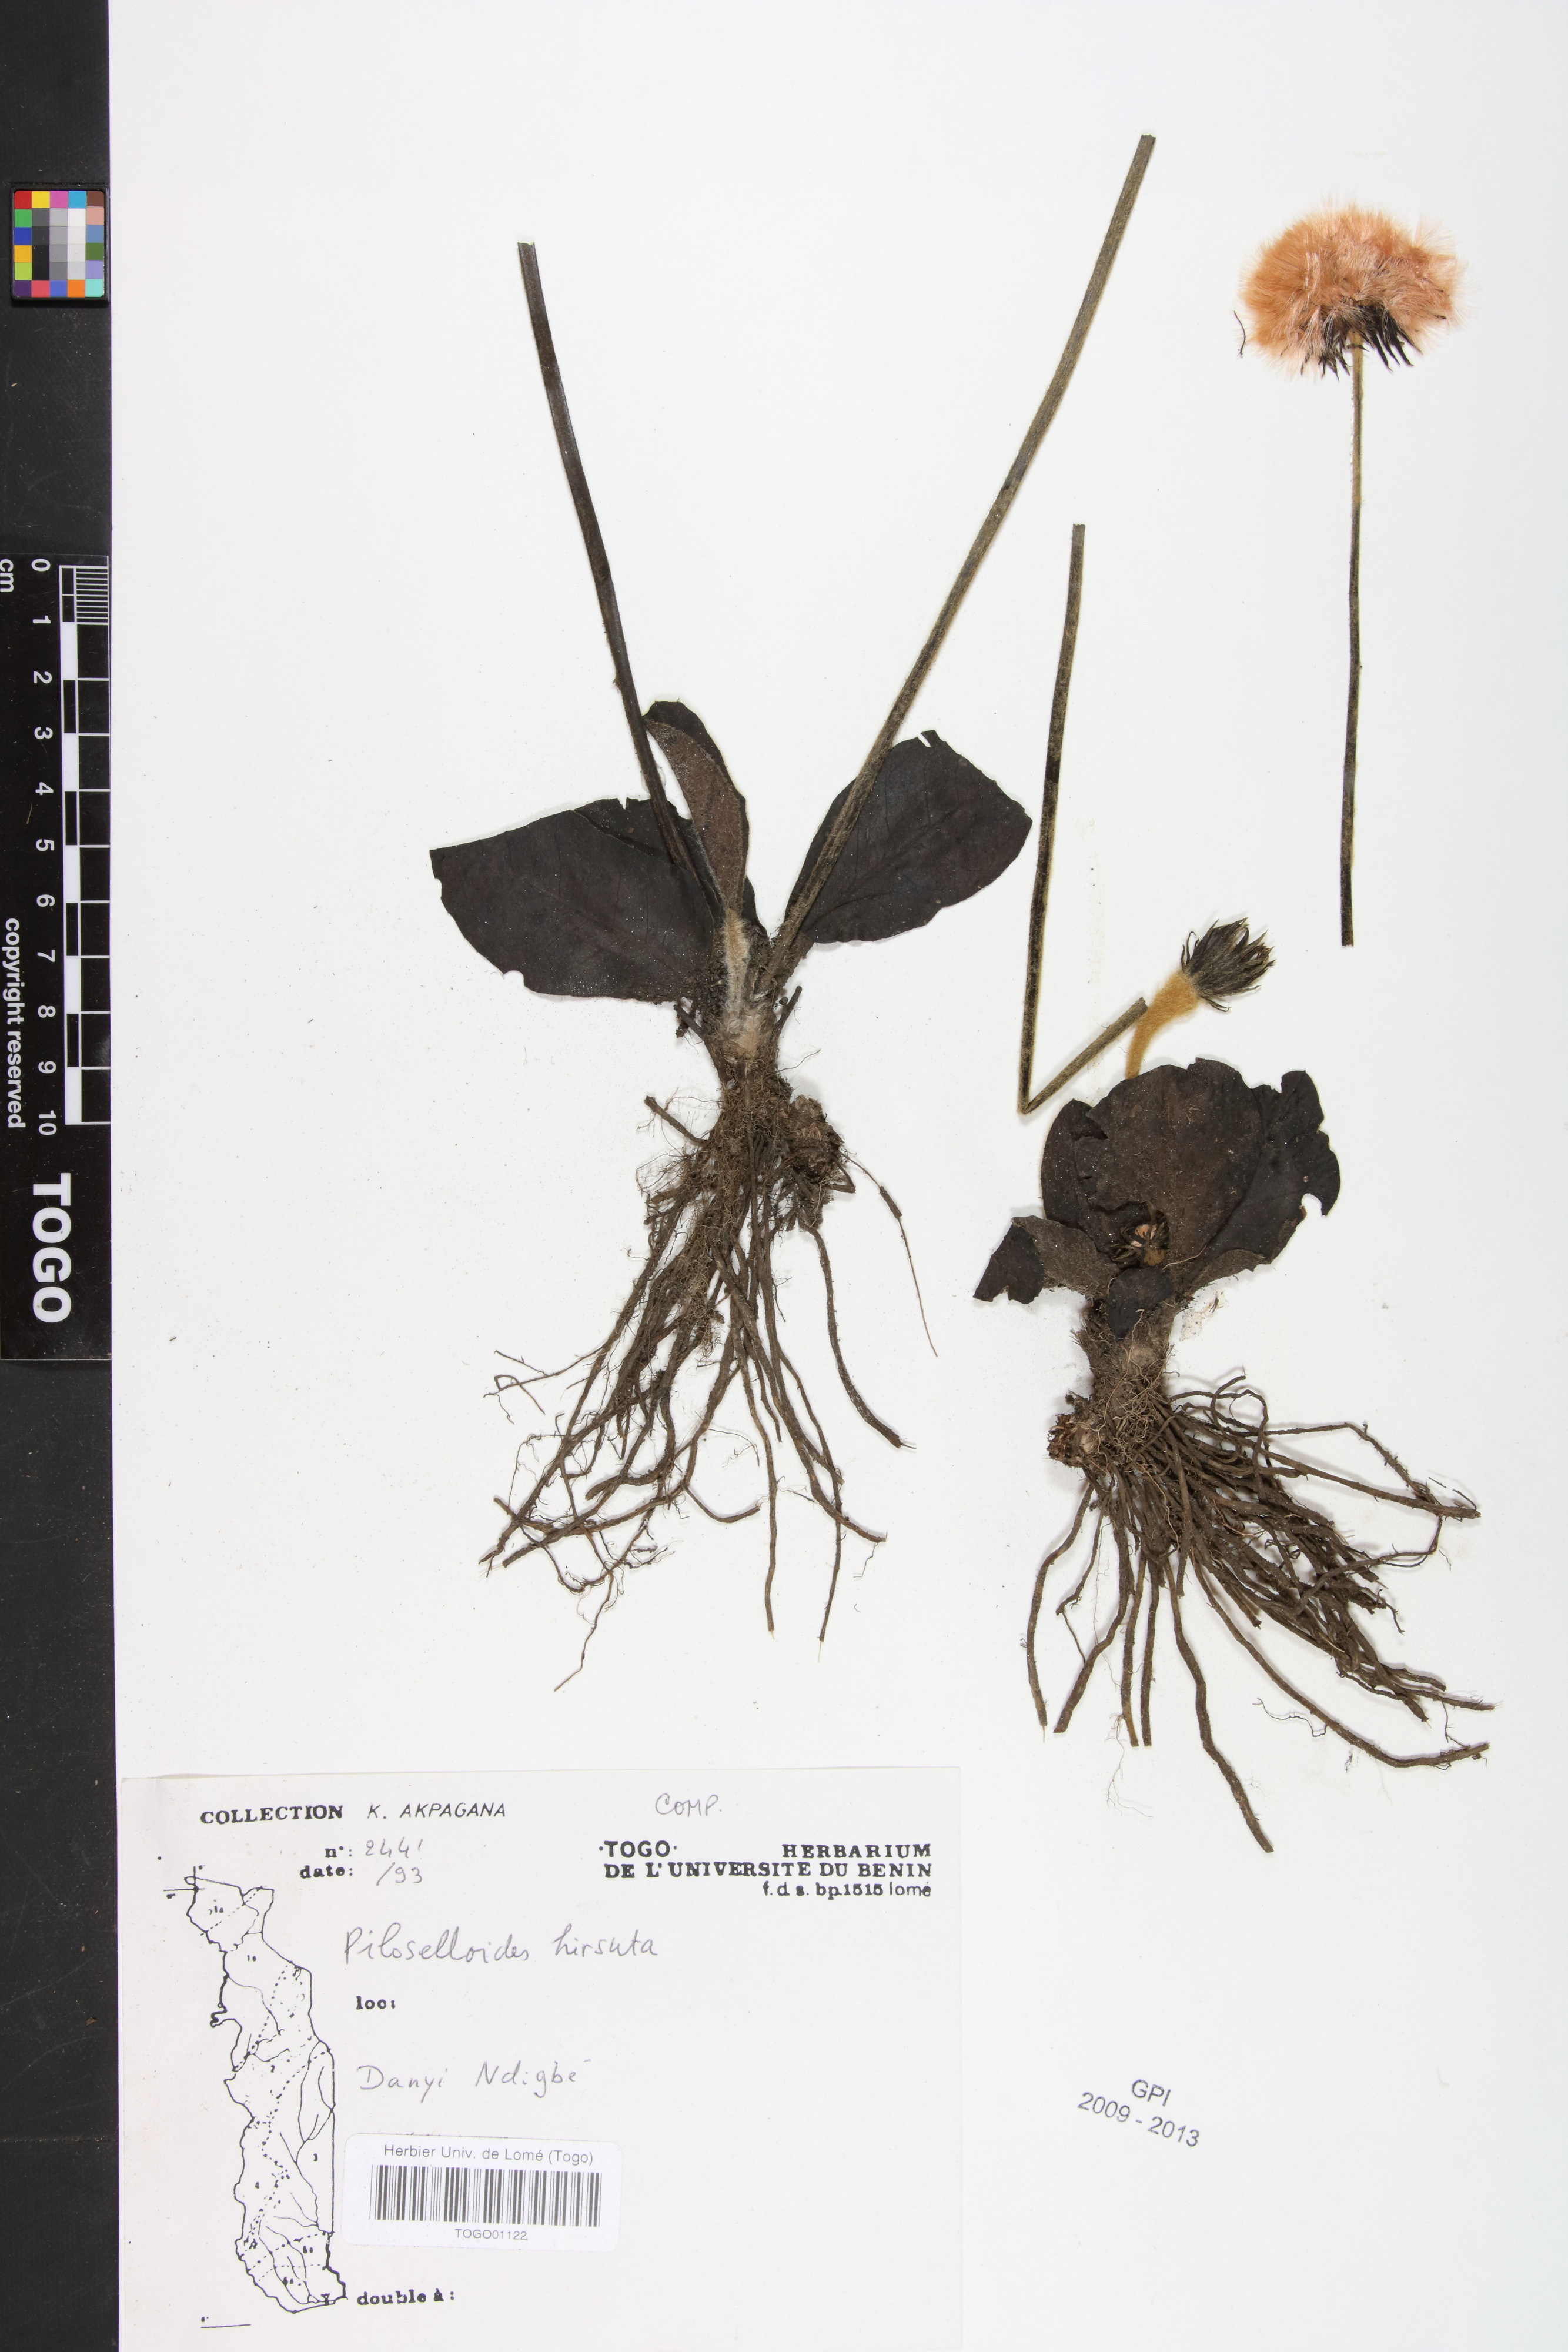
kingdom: Plantae
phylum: Tracheophyta
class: Magnoliopsida
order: Asterales
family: Asteraceae
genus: Piloselloides
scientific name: Piloselloides hirsuta
